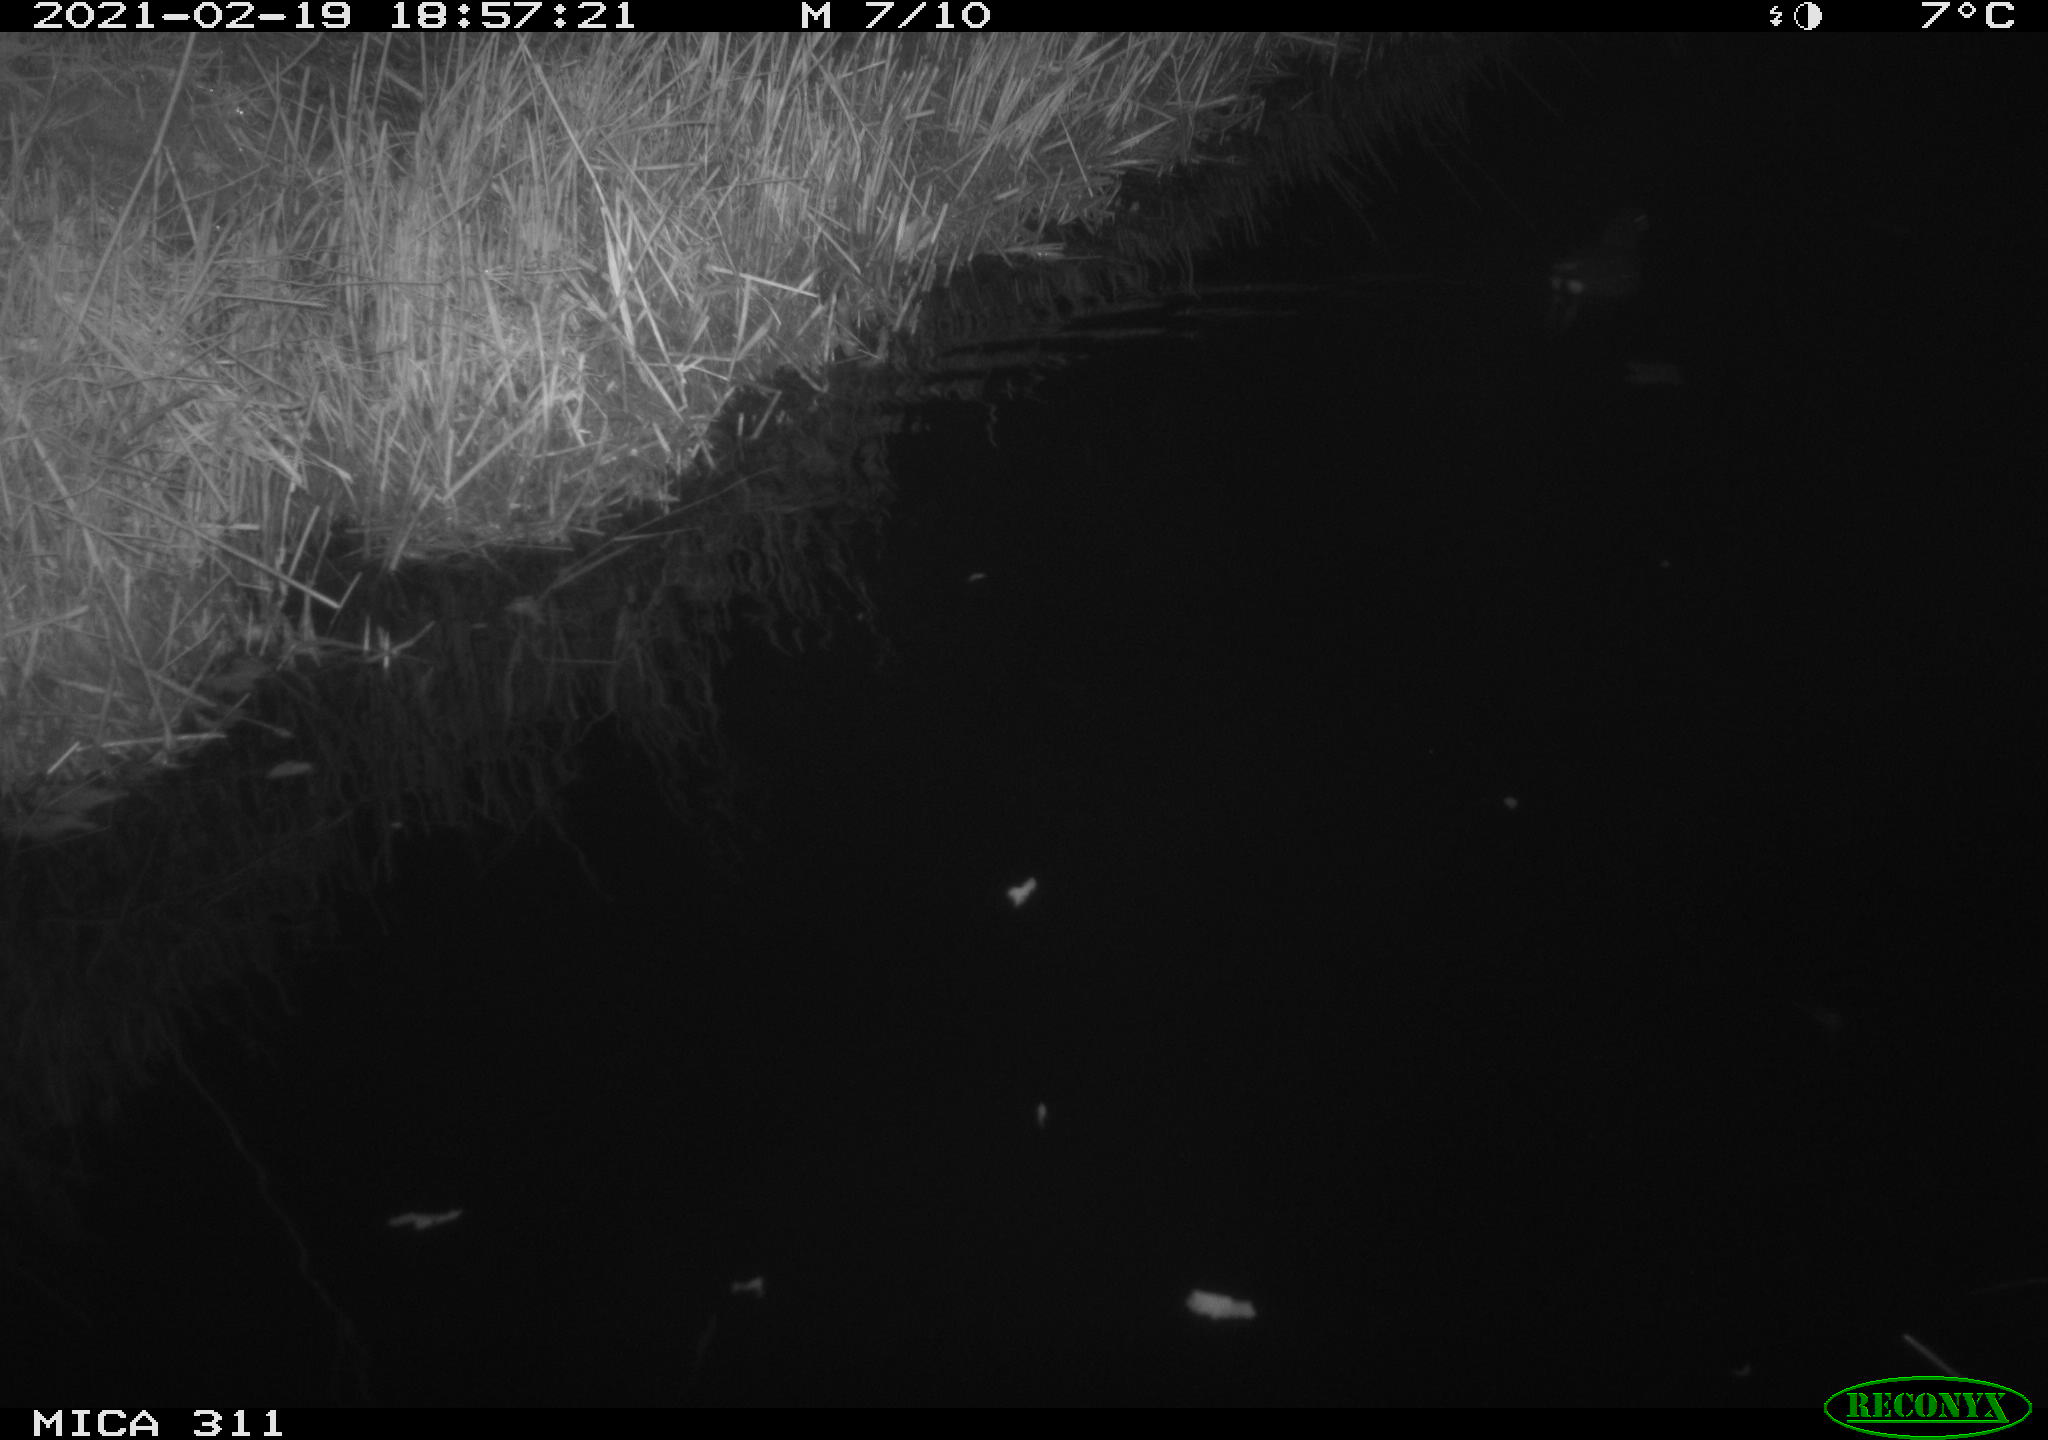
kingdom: Animalia
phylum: Chordata
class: Aves
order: Gruiformes
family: Rallidae
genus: Gallinula
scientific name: Gallinula chloropus
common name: Common moorhen
